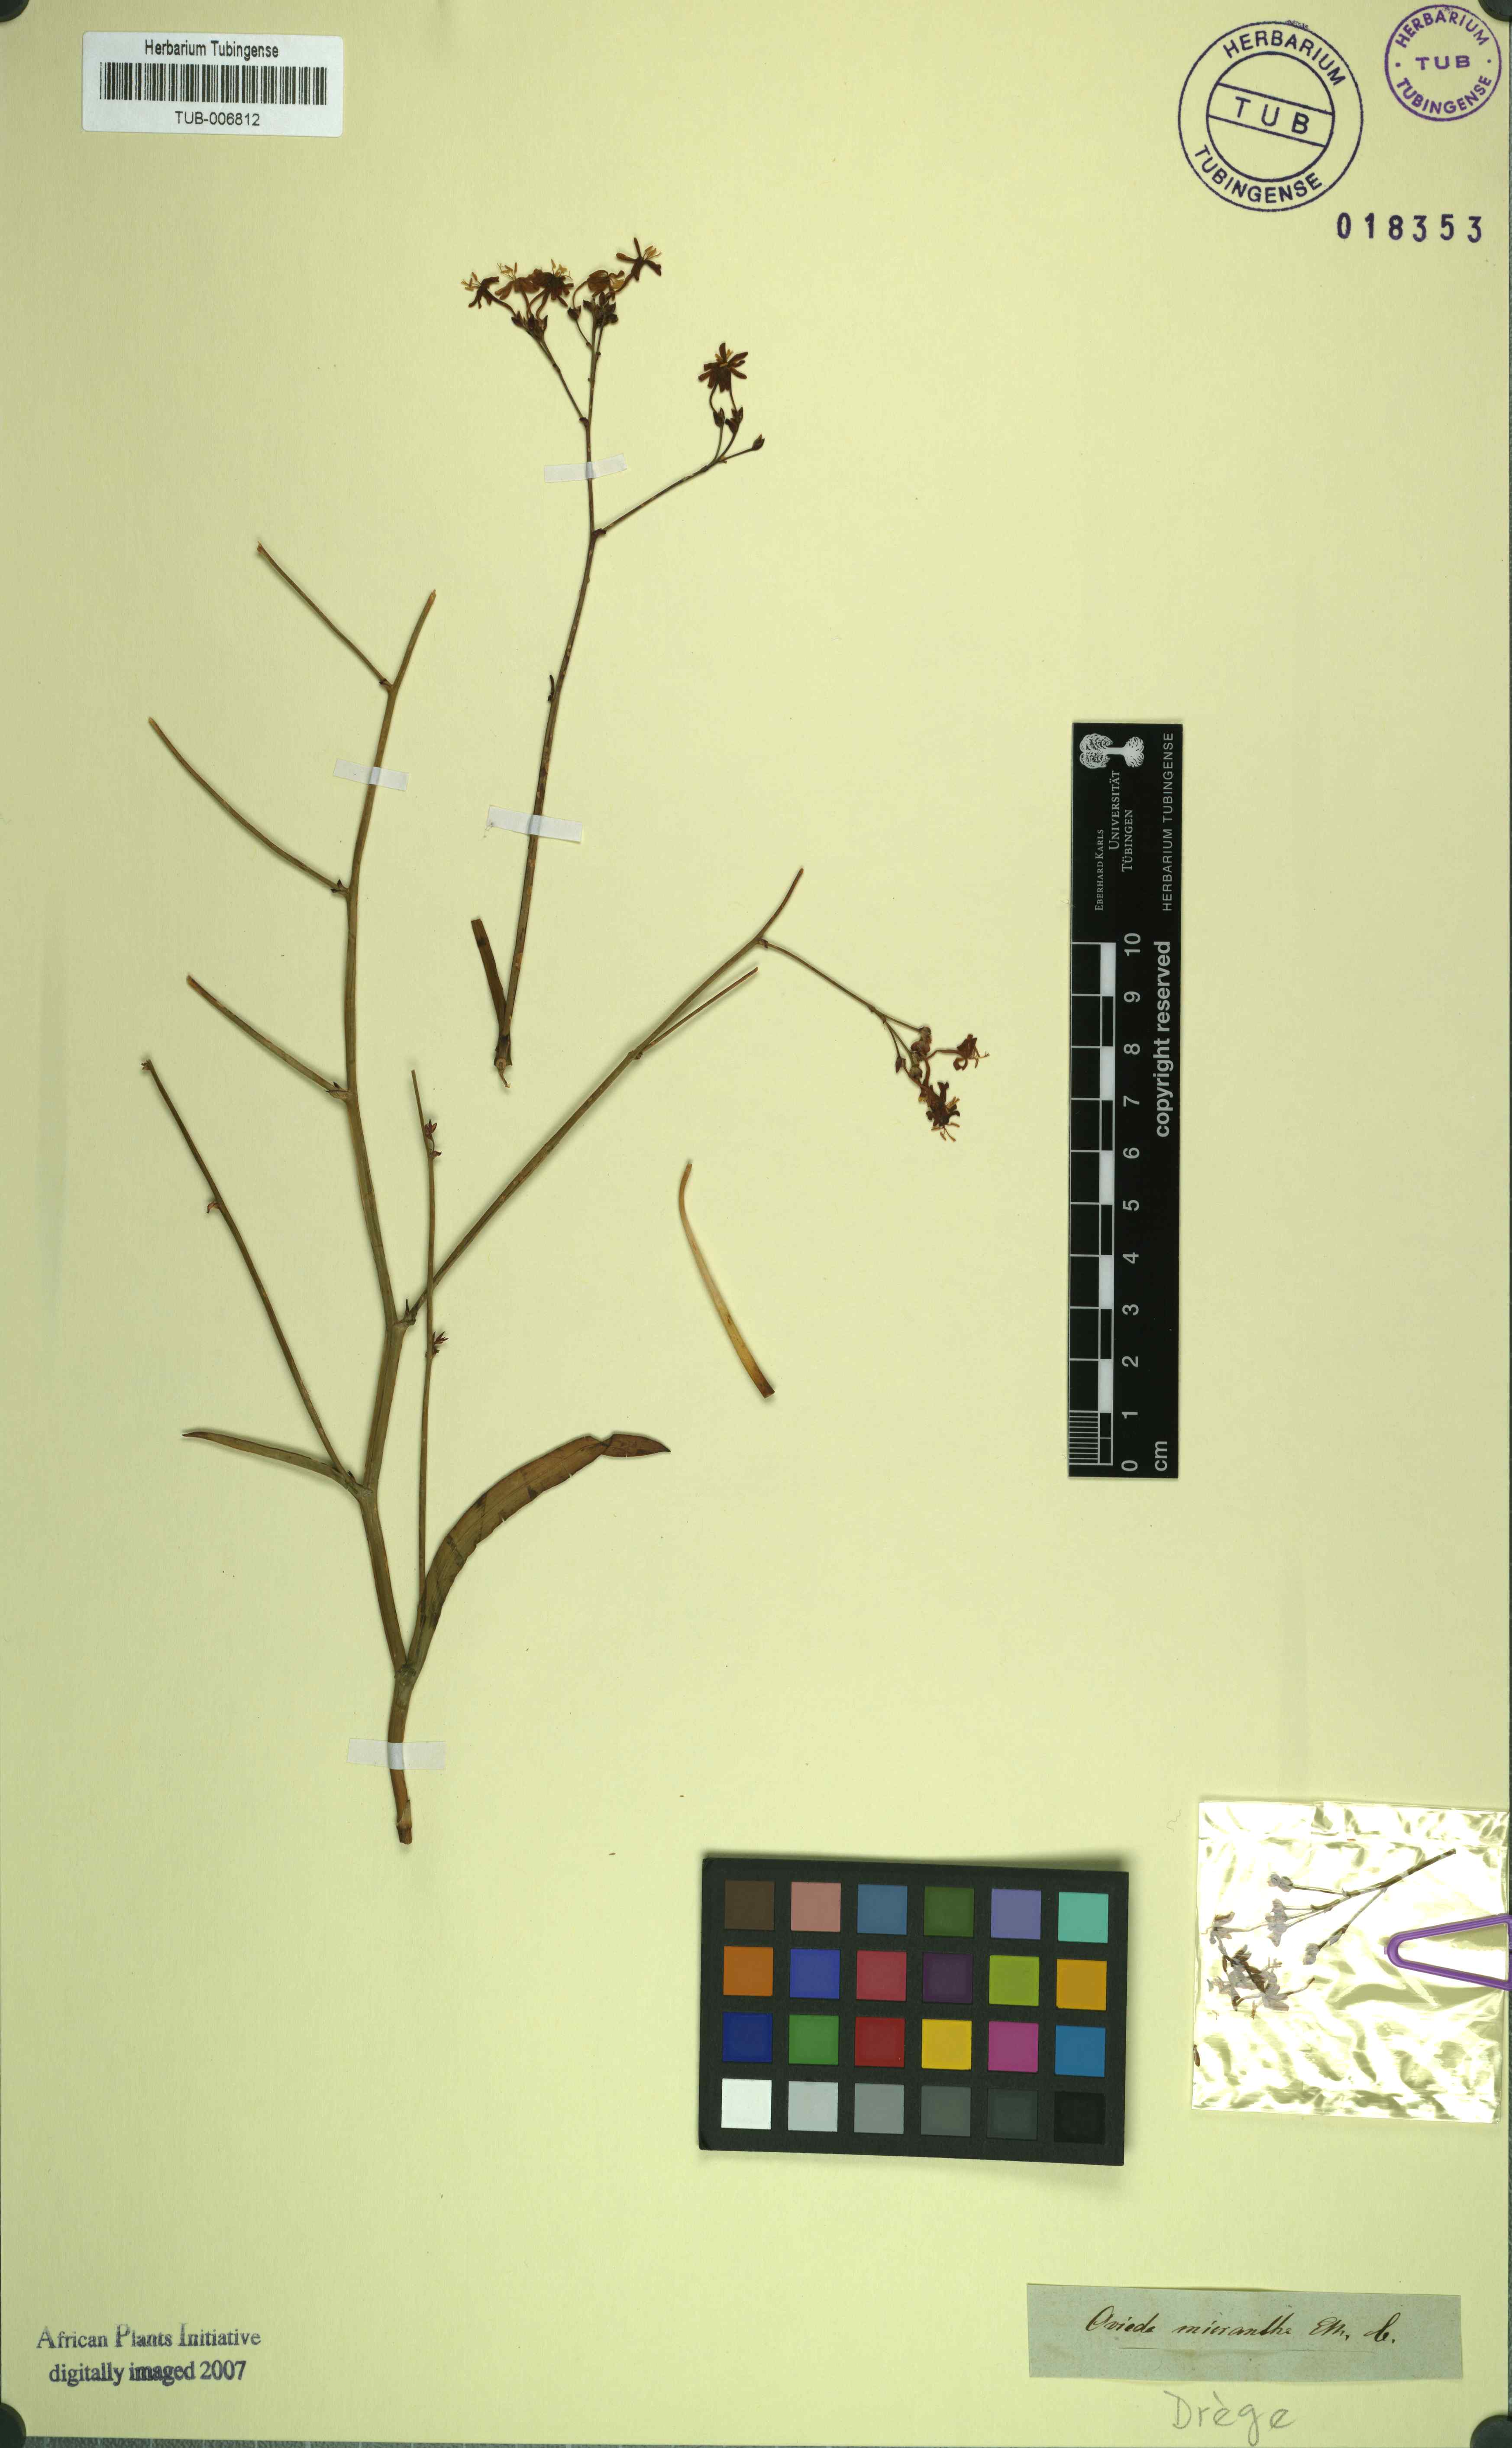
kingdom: Plantae
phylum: Tracheophyta
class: Liliopsida
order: Asparagales
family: Iridaceae
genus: Codonorhiza
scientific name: Codonorhiza micrantha
